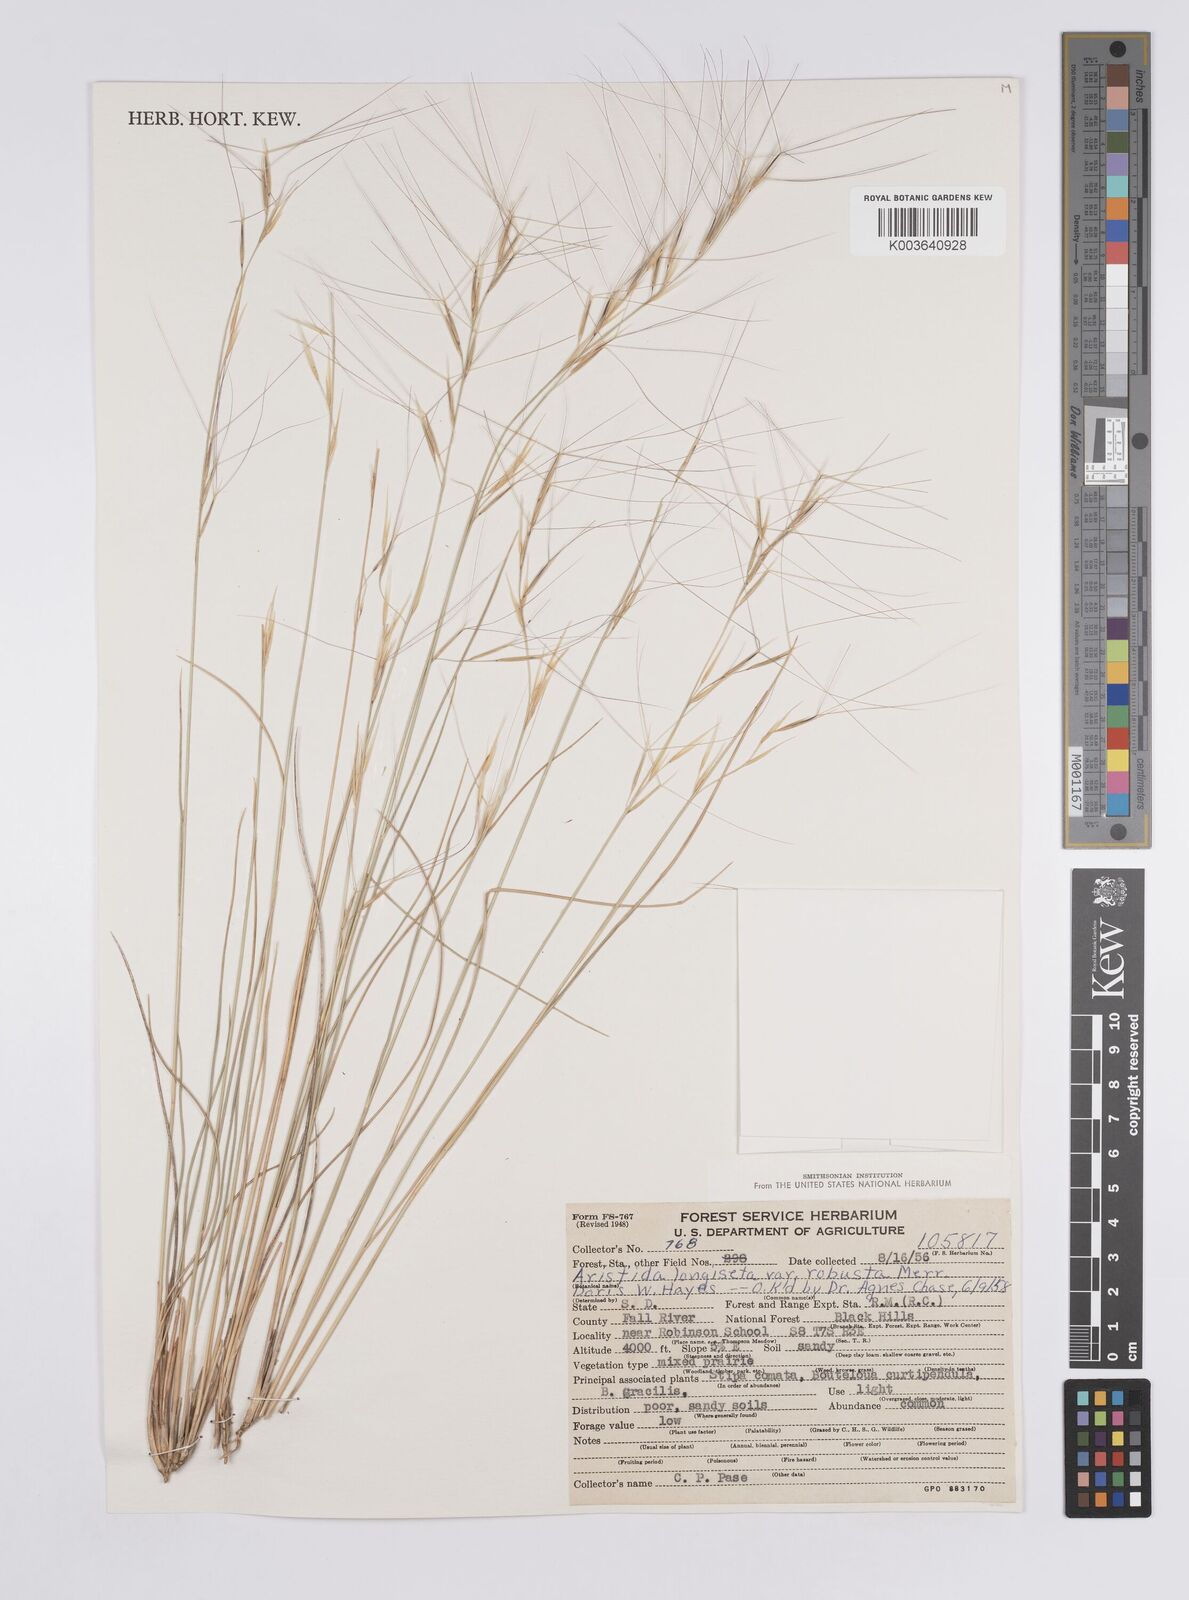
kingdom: Plantae
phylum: Tracheophyta
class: Liliopsida
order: Poales
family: Poaceae
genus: Aristida
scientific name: Aristida purpurea
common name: Purple threeawn
